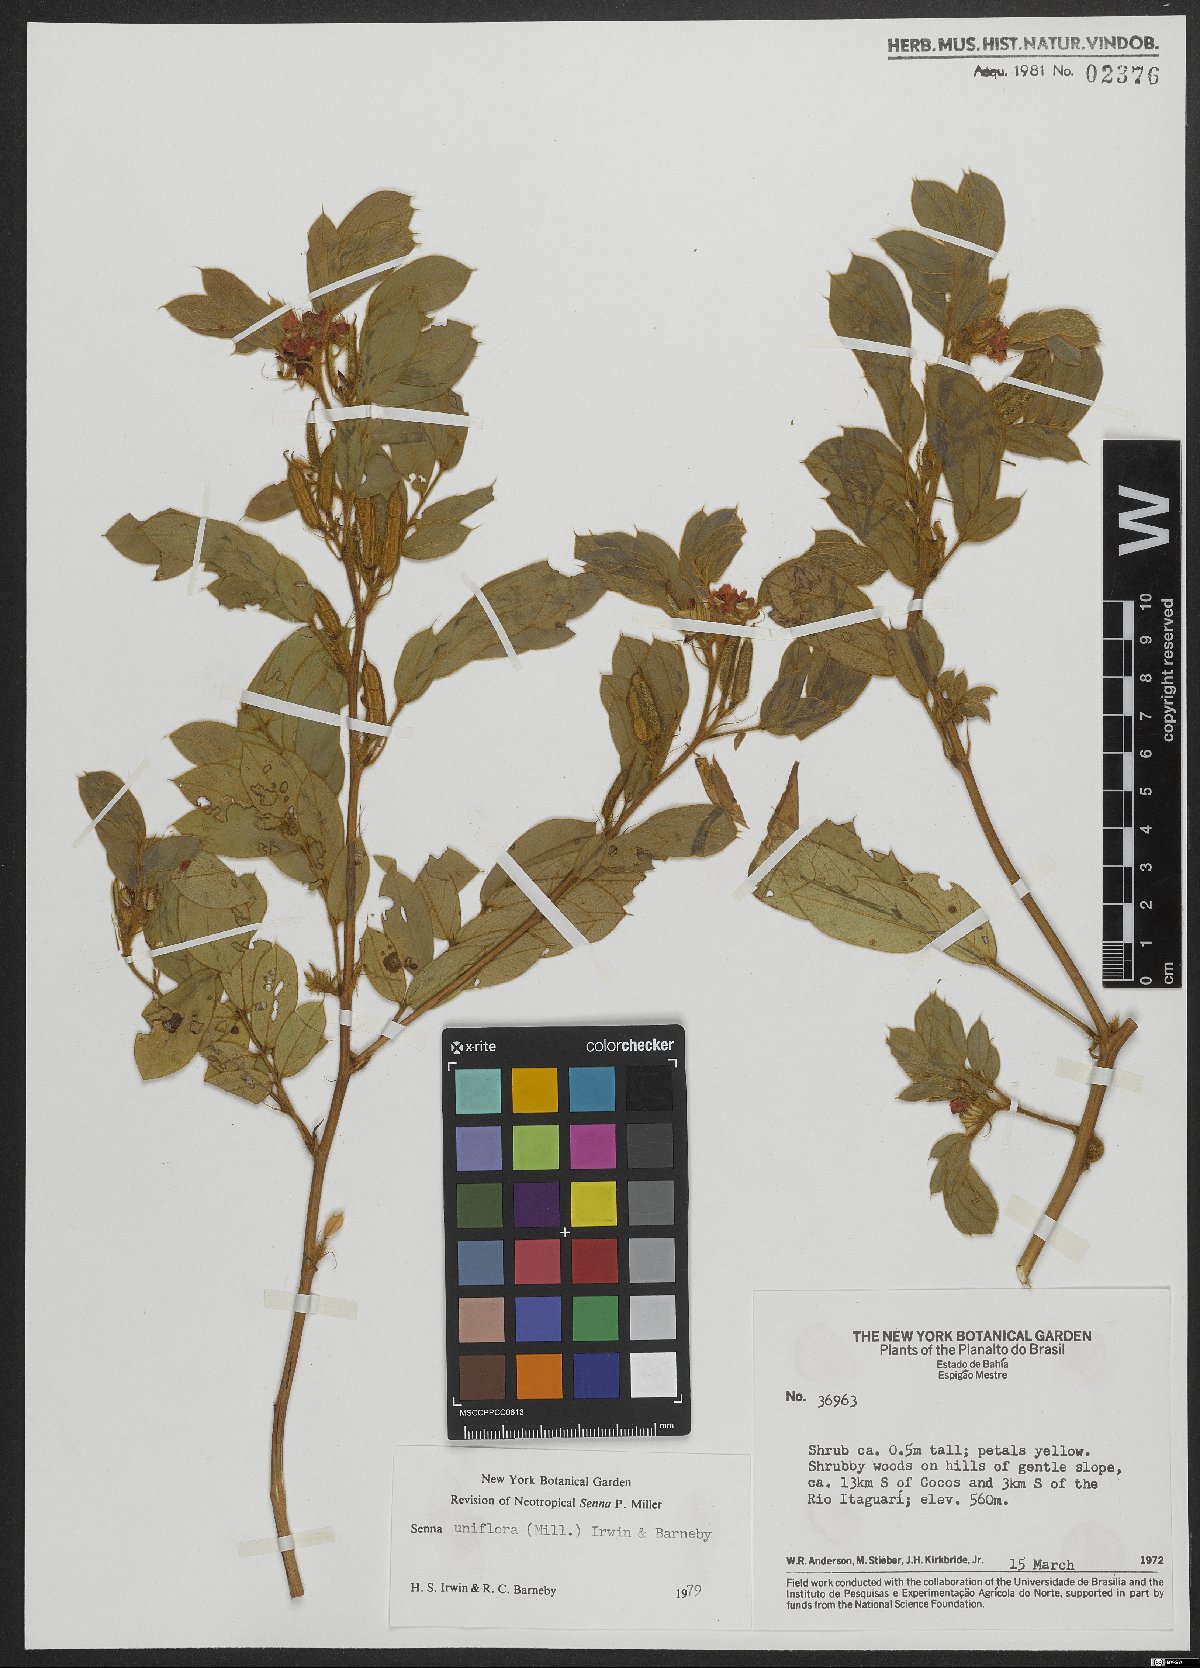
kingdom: Plantae
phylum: Tracheophyta
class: Magnoliopsida
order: Fabales
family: Fabaceae
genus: Senna
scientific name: Senna angulata
